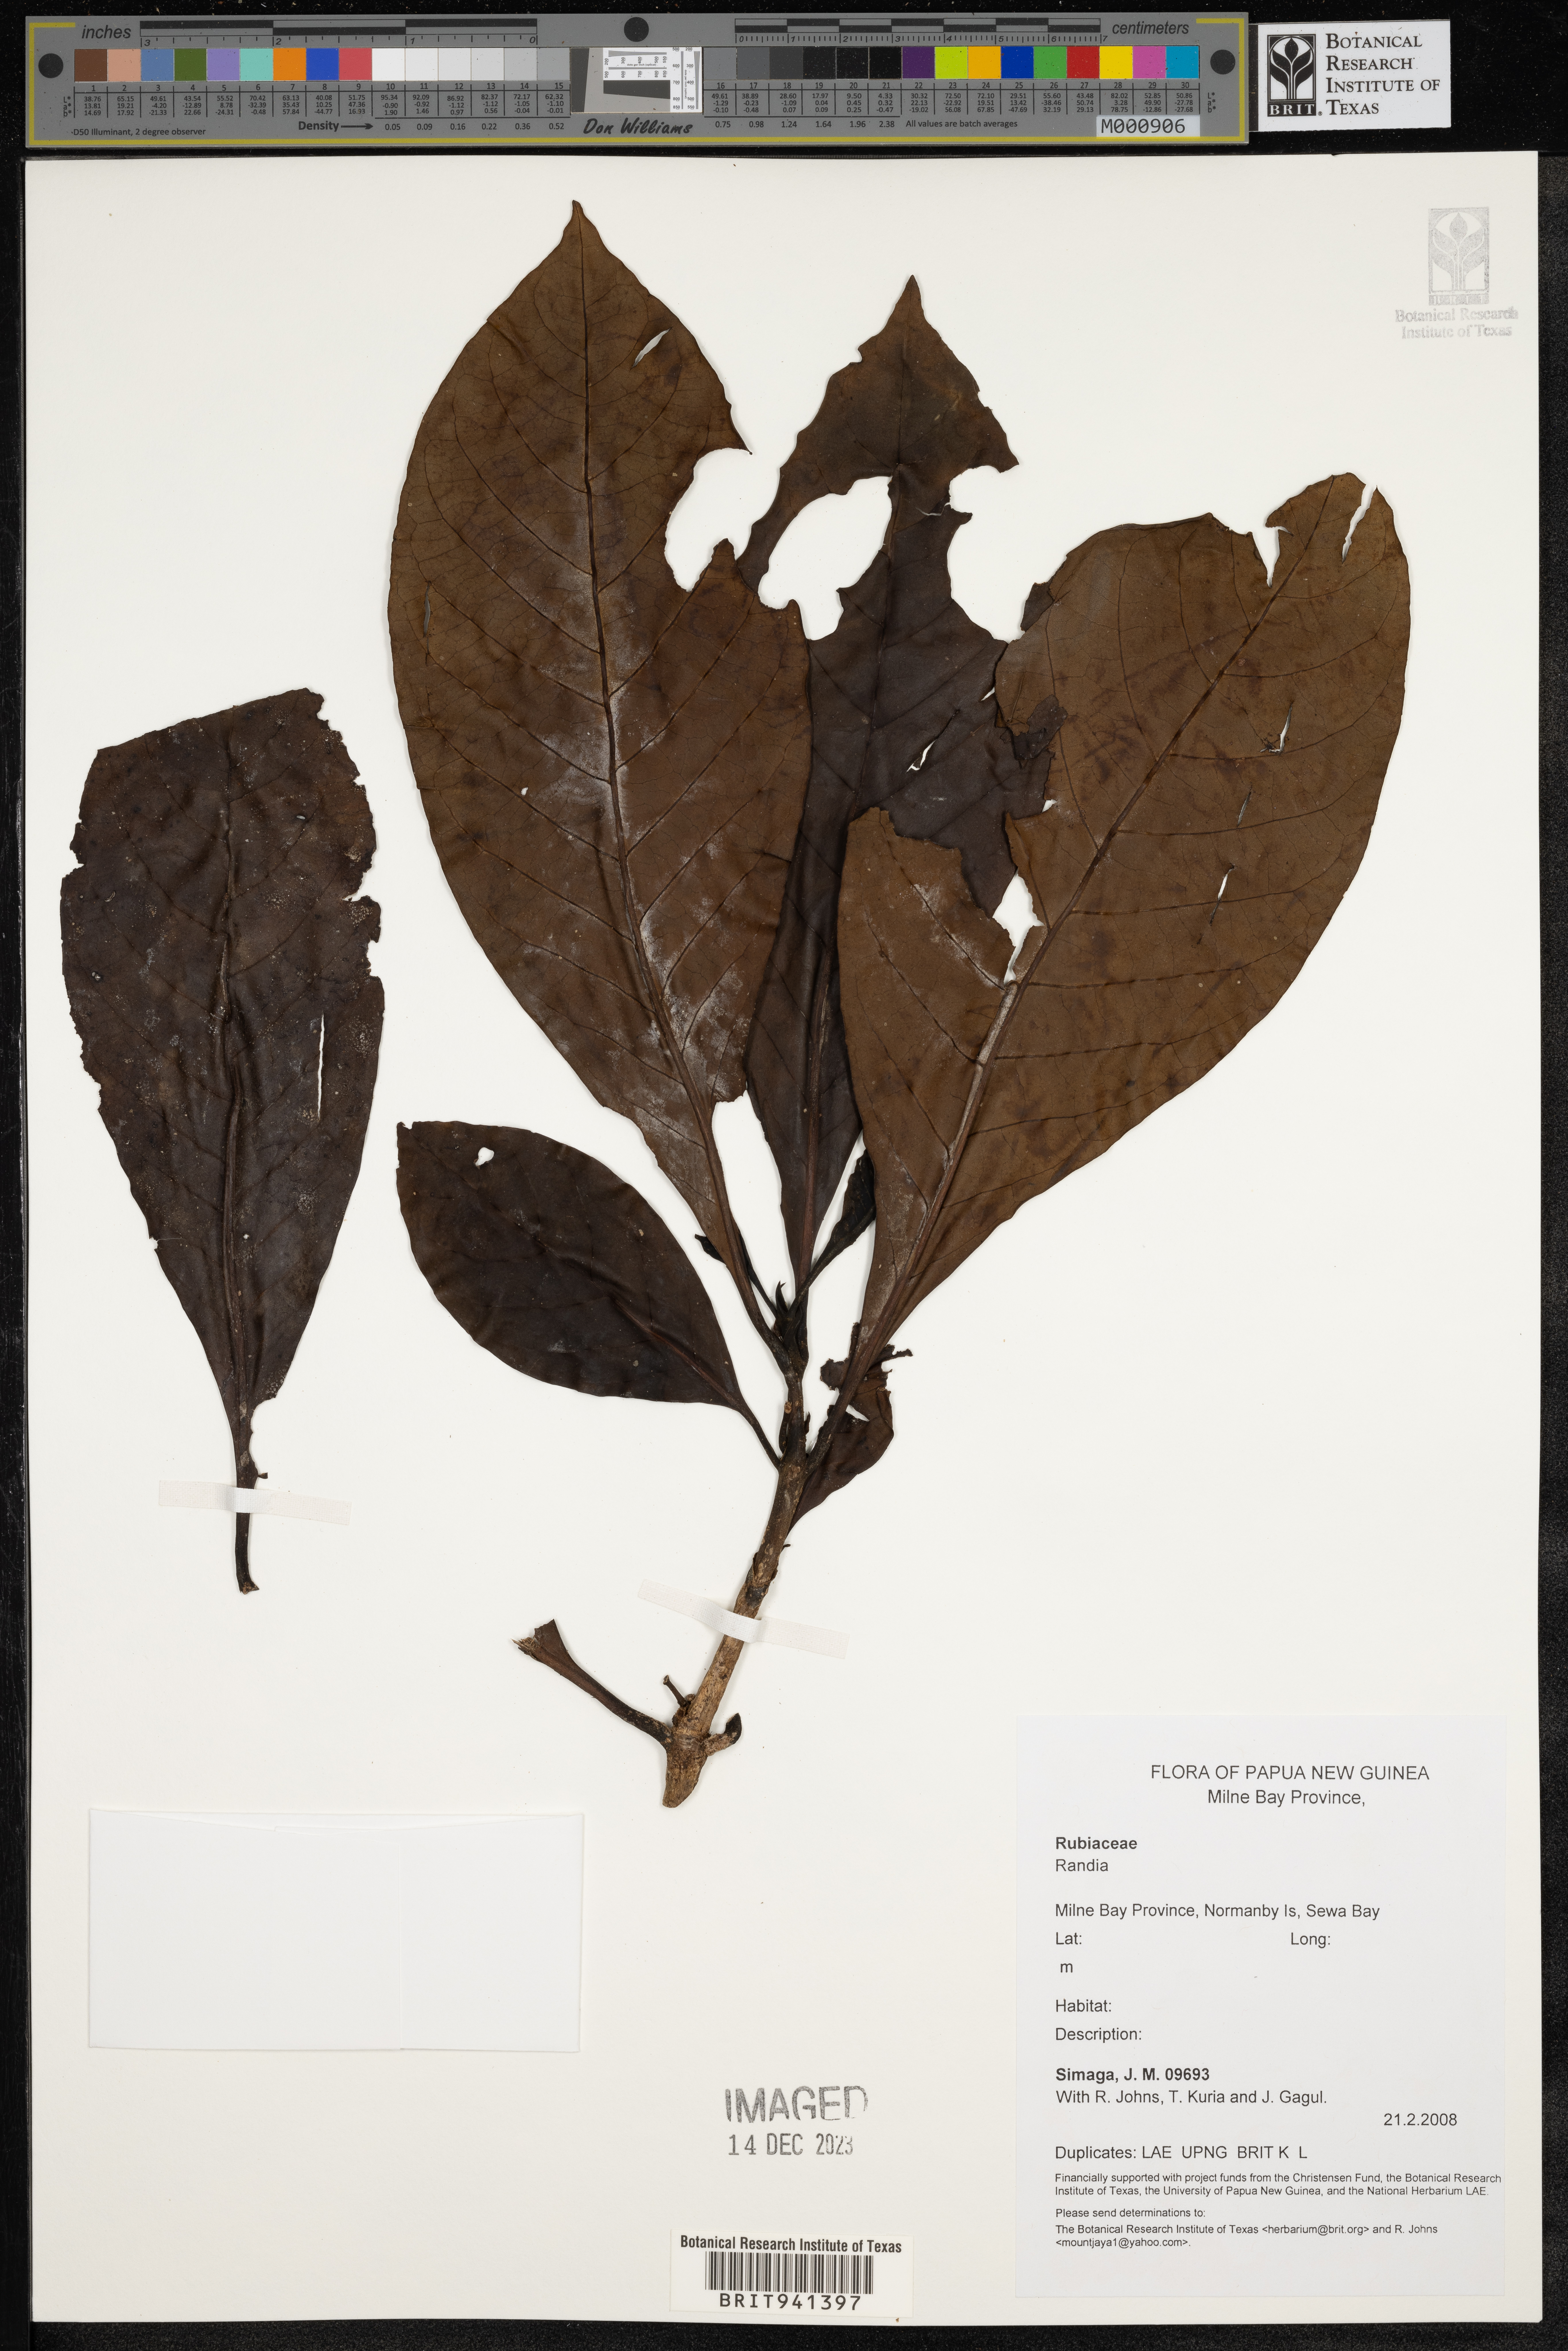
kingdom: Plantae
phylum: Tracheophyta
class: Magnoliopsida
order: Gentianales
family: Rubiaceae
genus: Randia
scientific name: Randia
